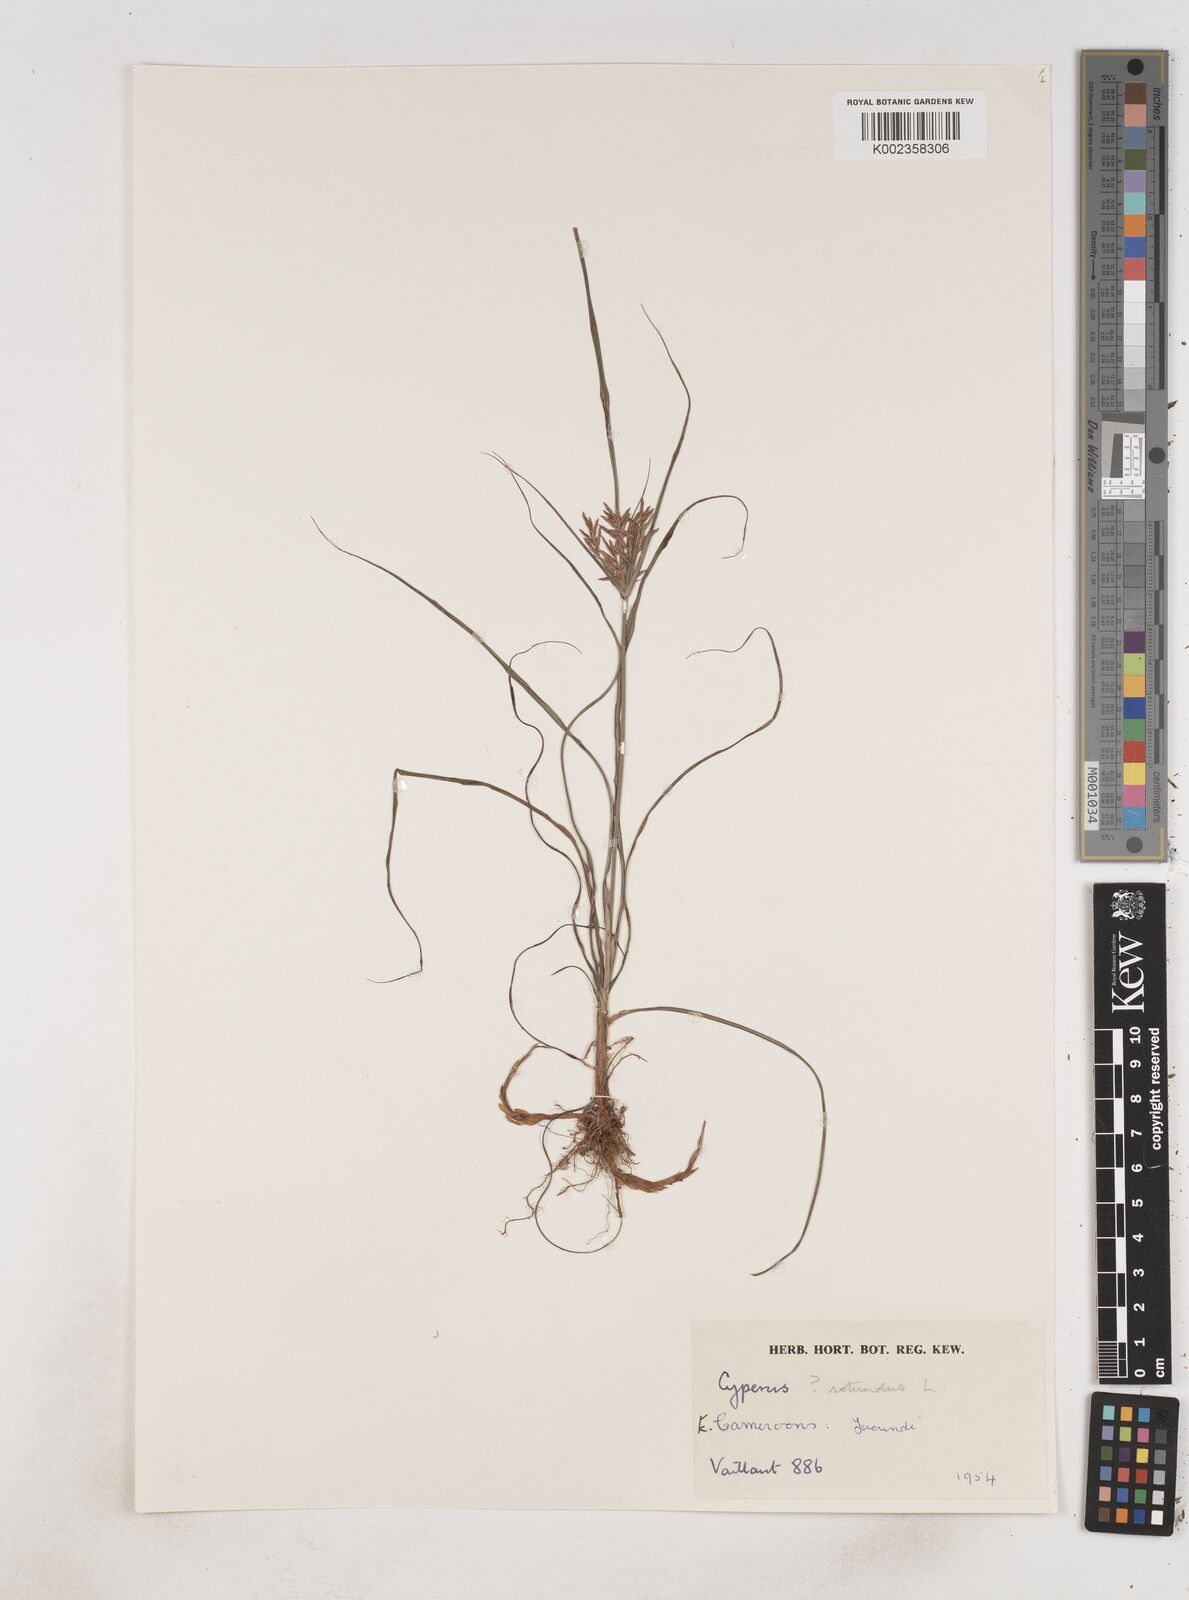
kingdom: Plantae
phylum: Tracheophyta
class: Liliopsida
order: Poales
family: Cyperaceae
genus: Cyperus
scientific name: Cyperus rotundus
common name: Nutgrass
